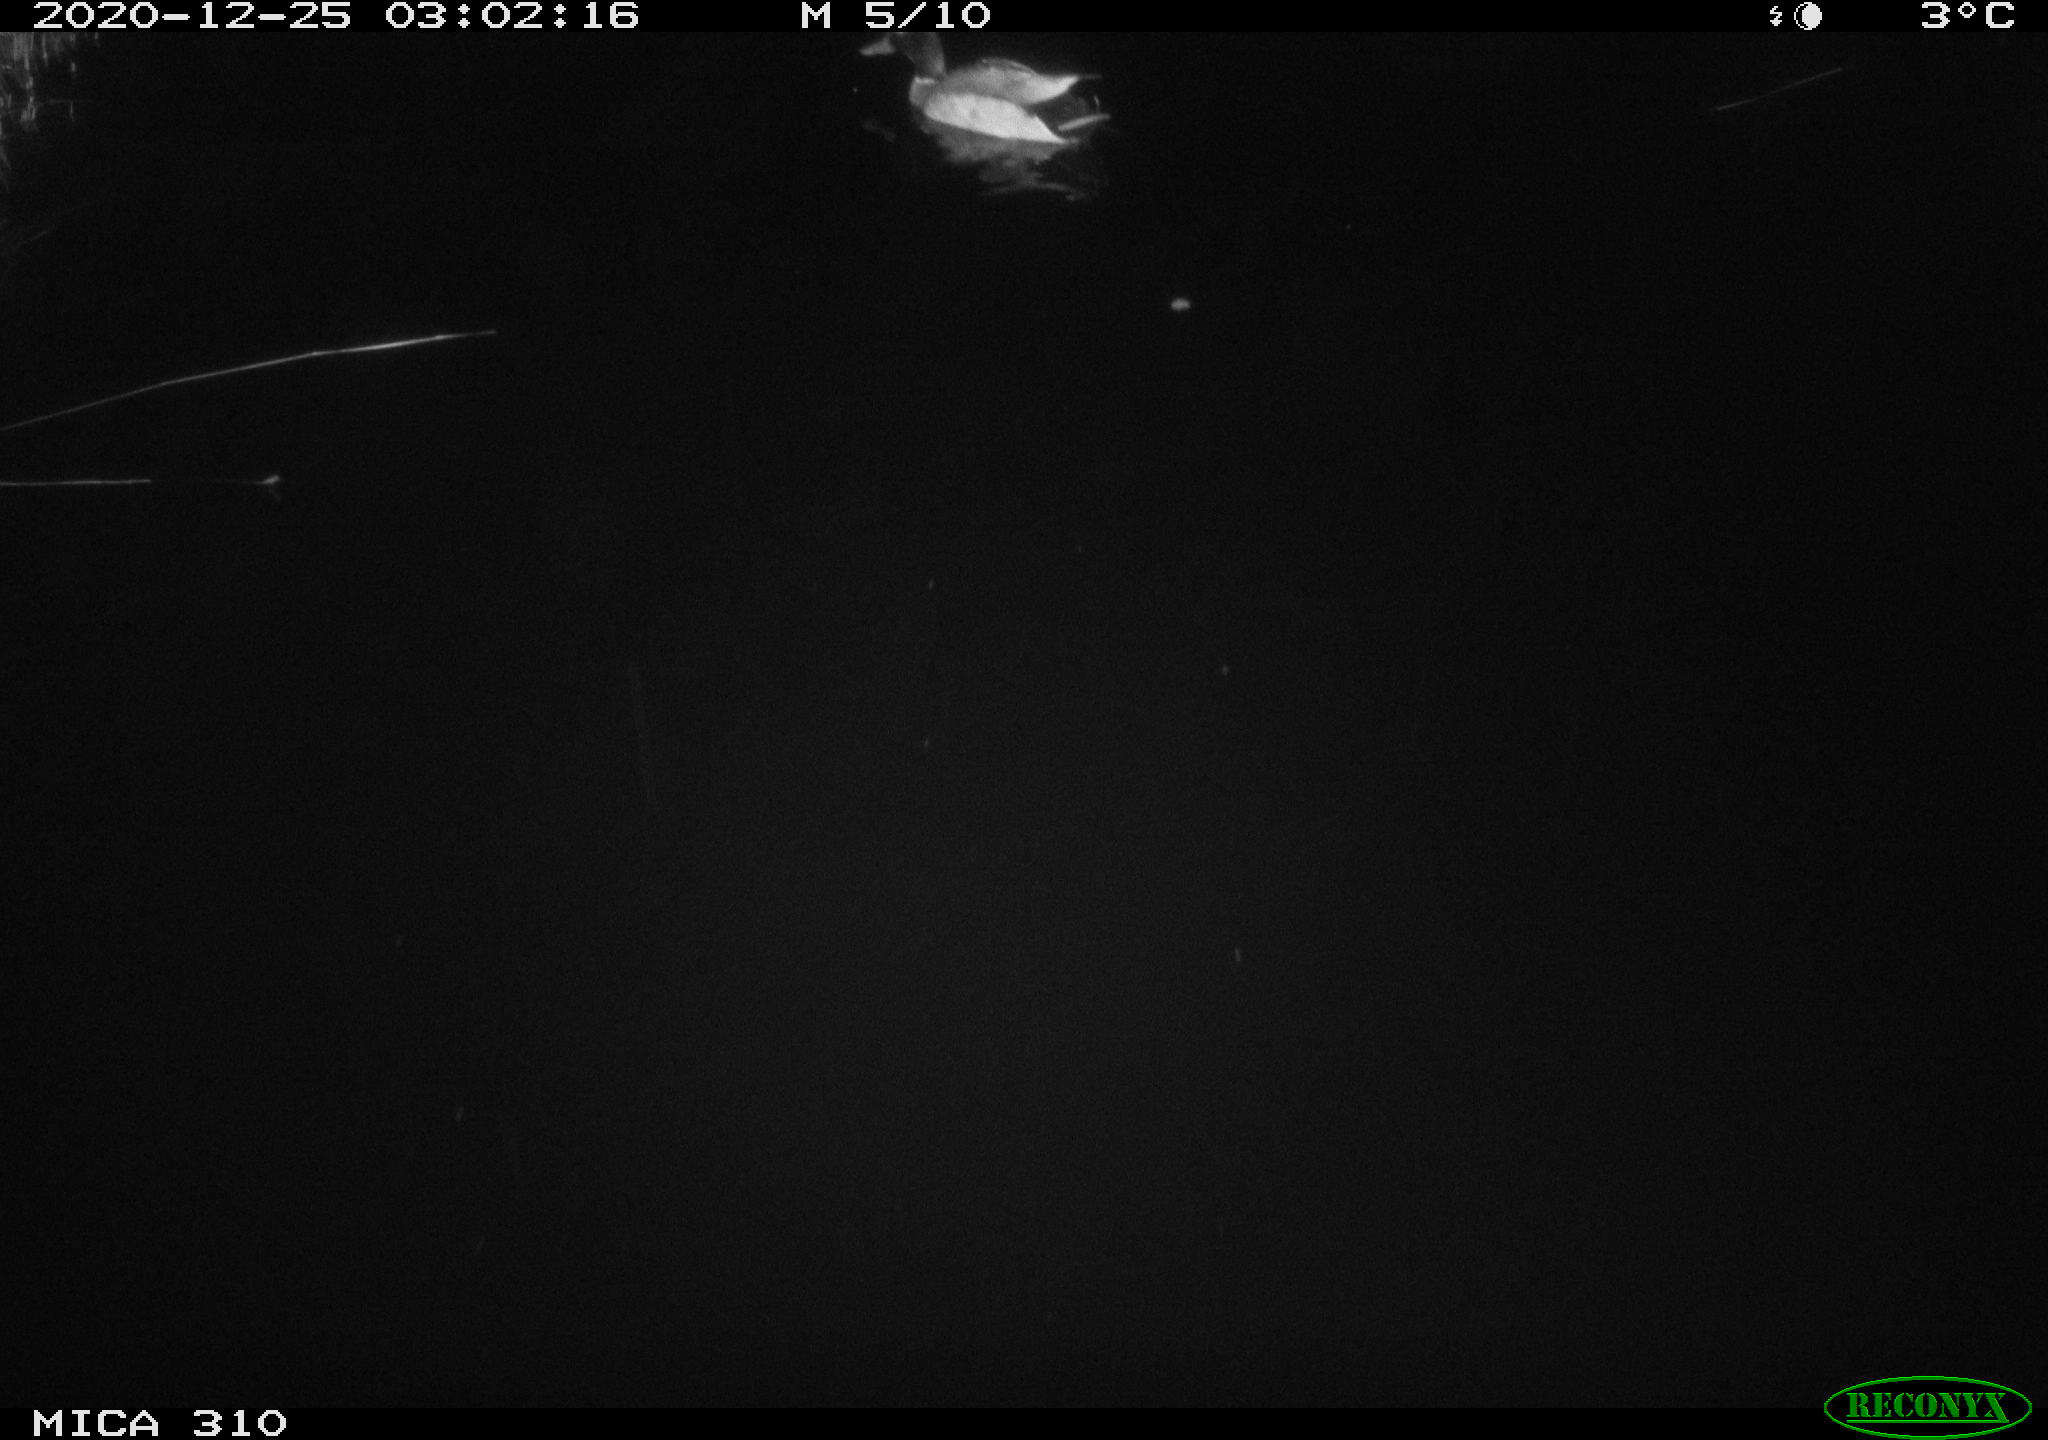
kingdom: Animalia
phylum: Chordata
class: Aves
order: Anseriformes
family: Anatidae
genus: Anas
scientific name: Anas platyrhynchos
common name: Mallard
